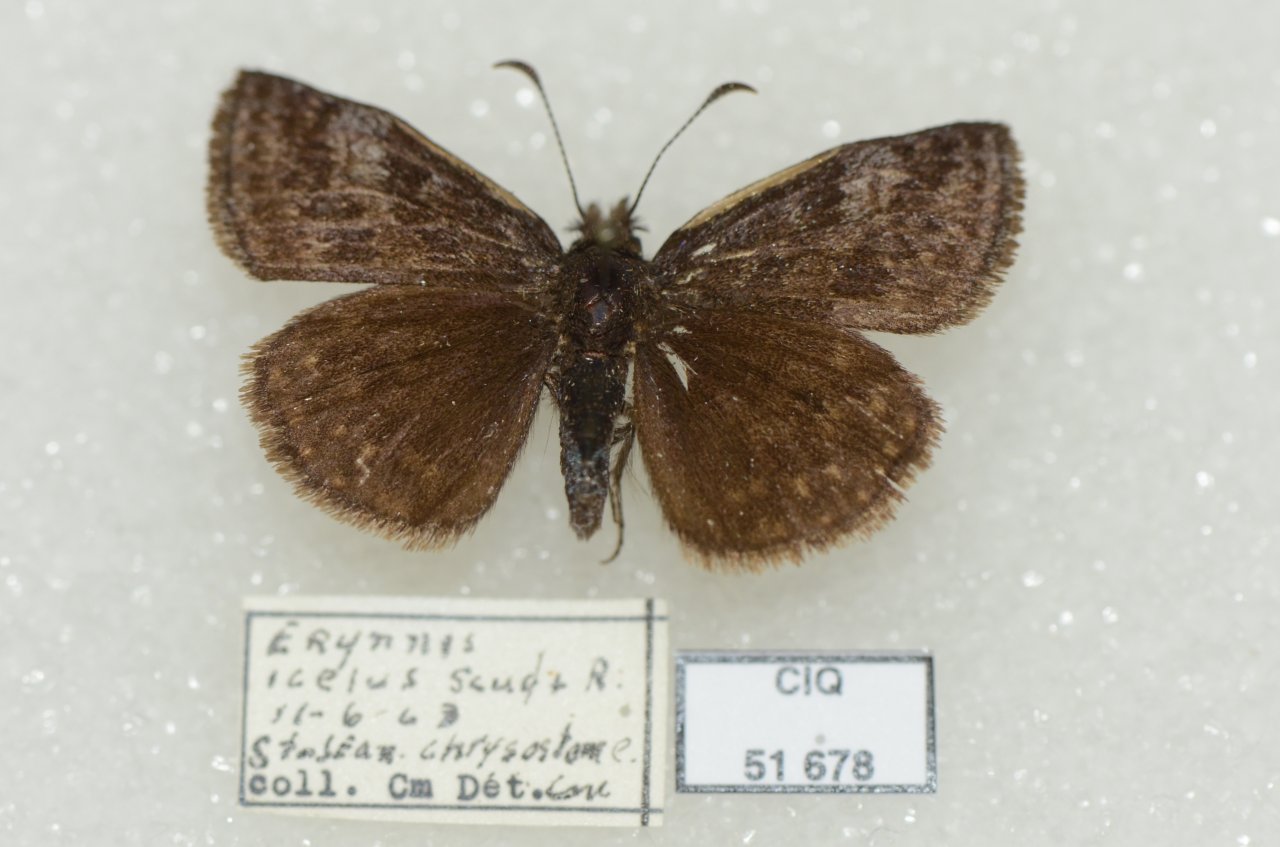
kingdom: Animalia
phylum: Arthropoda
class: Insecta
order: Lepidoptera
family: Hesperiidae
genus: Erynnis
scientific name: Erynnis icelus
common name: Dreamy Duskywing
